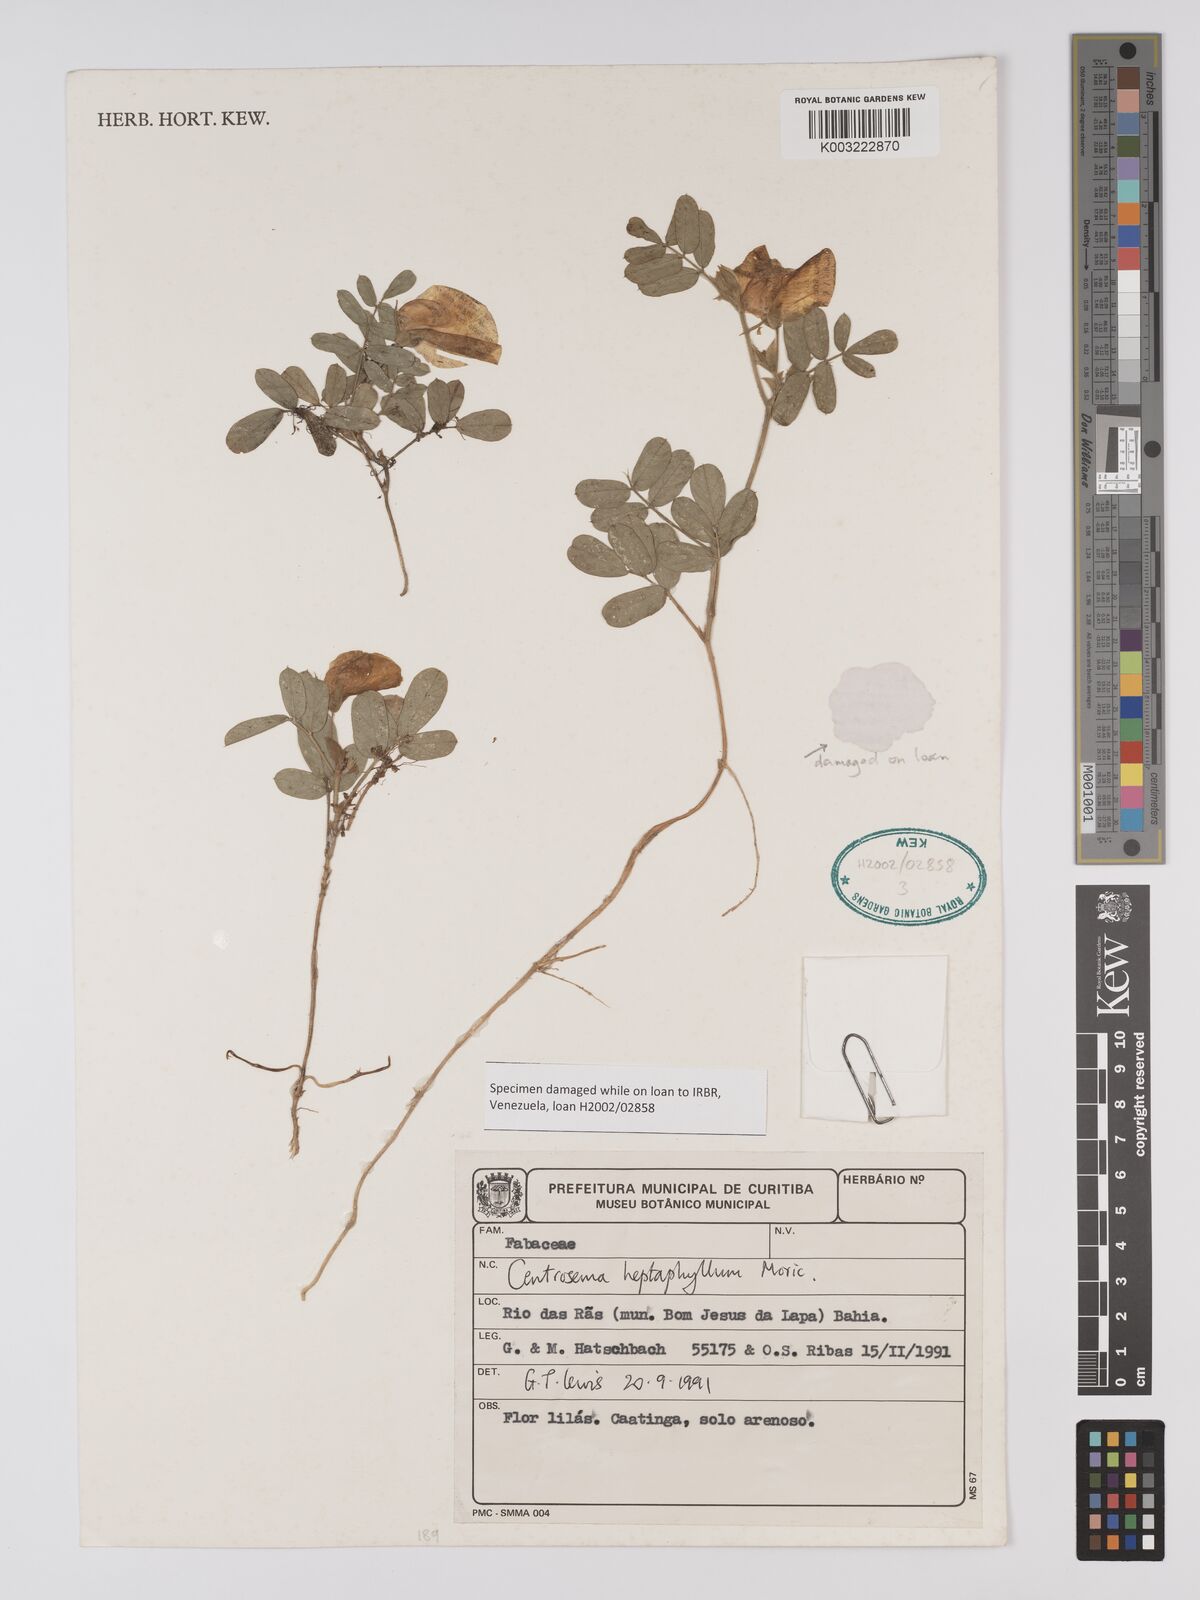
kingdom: Plantae
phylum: Tracheophyta
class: Magnoliopsida
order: Fabales
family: Fabaceae
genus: Centrosema
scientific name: Centrosema heptaphyllum
